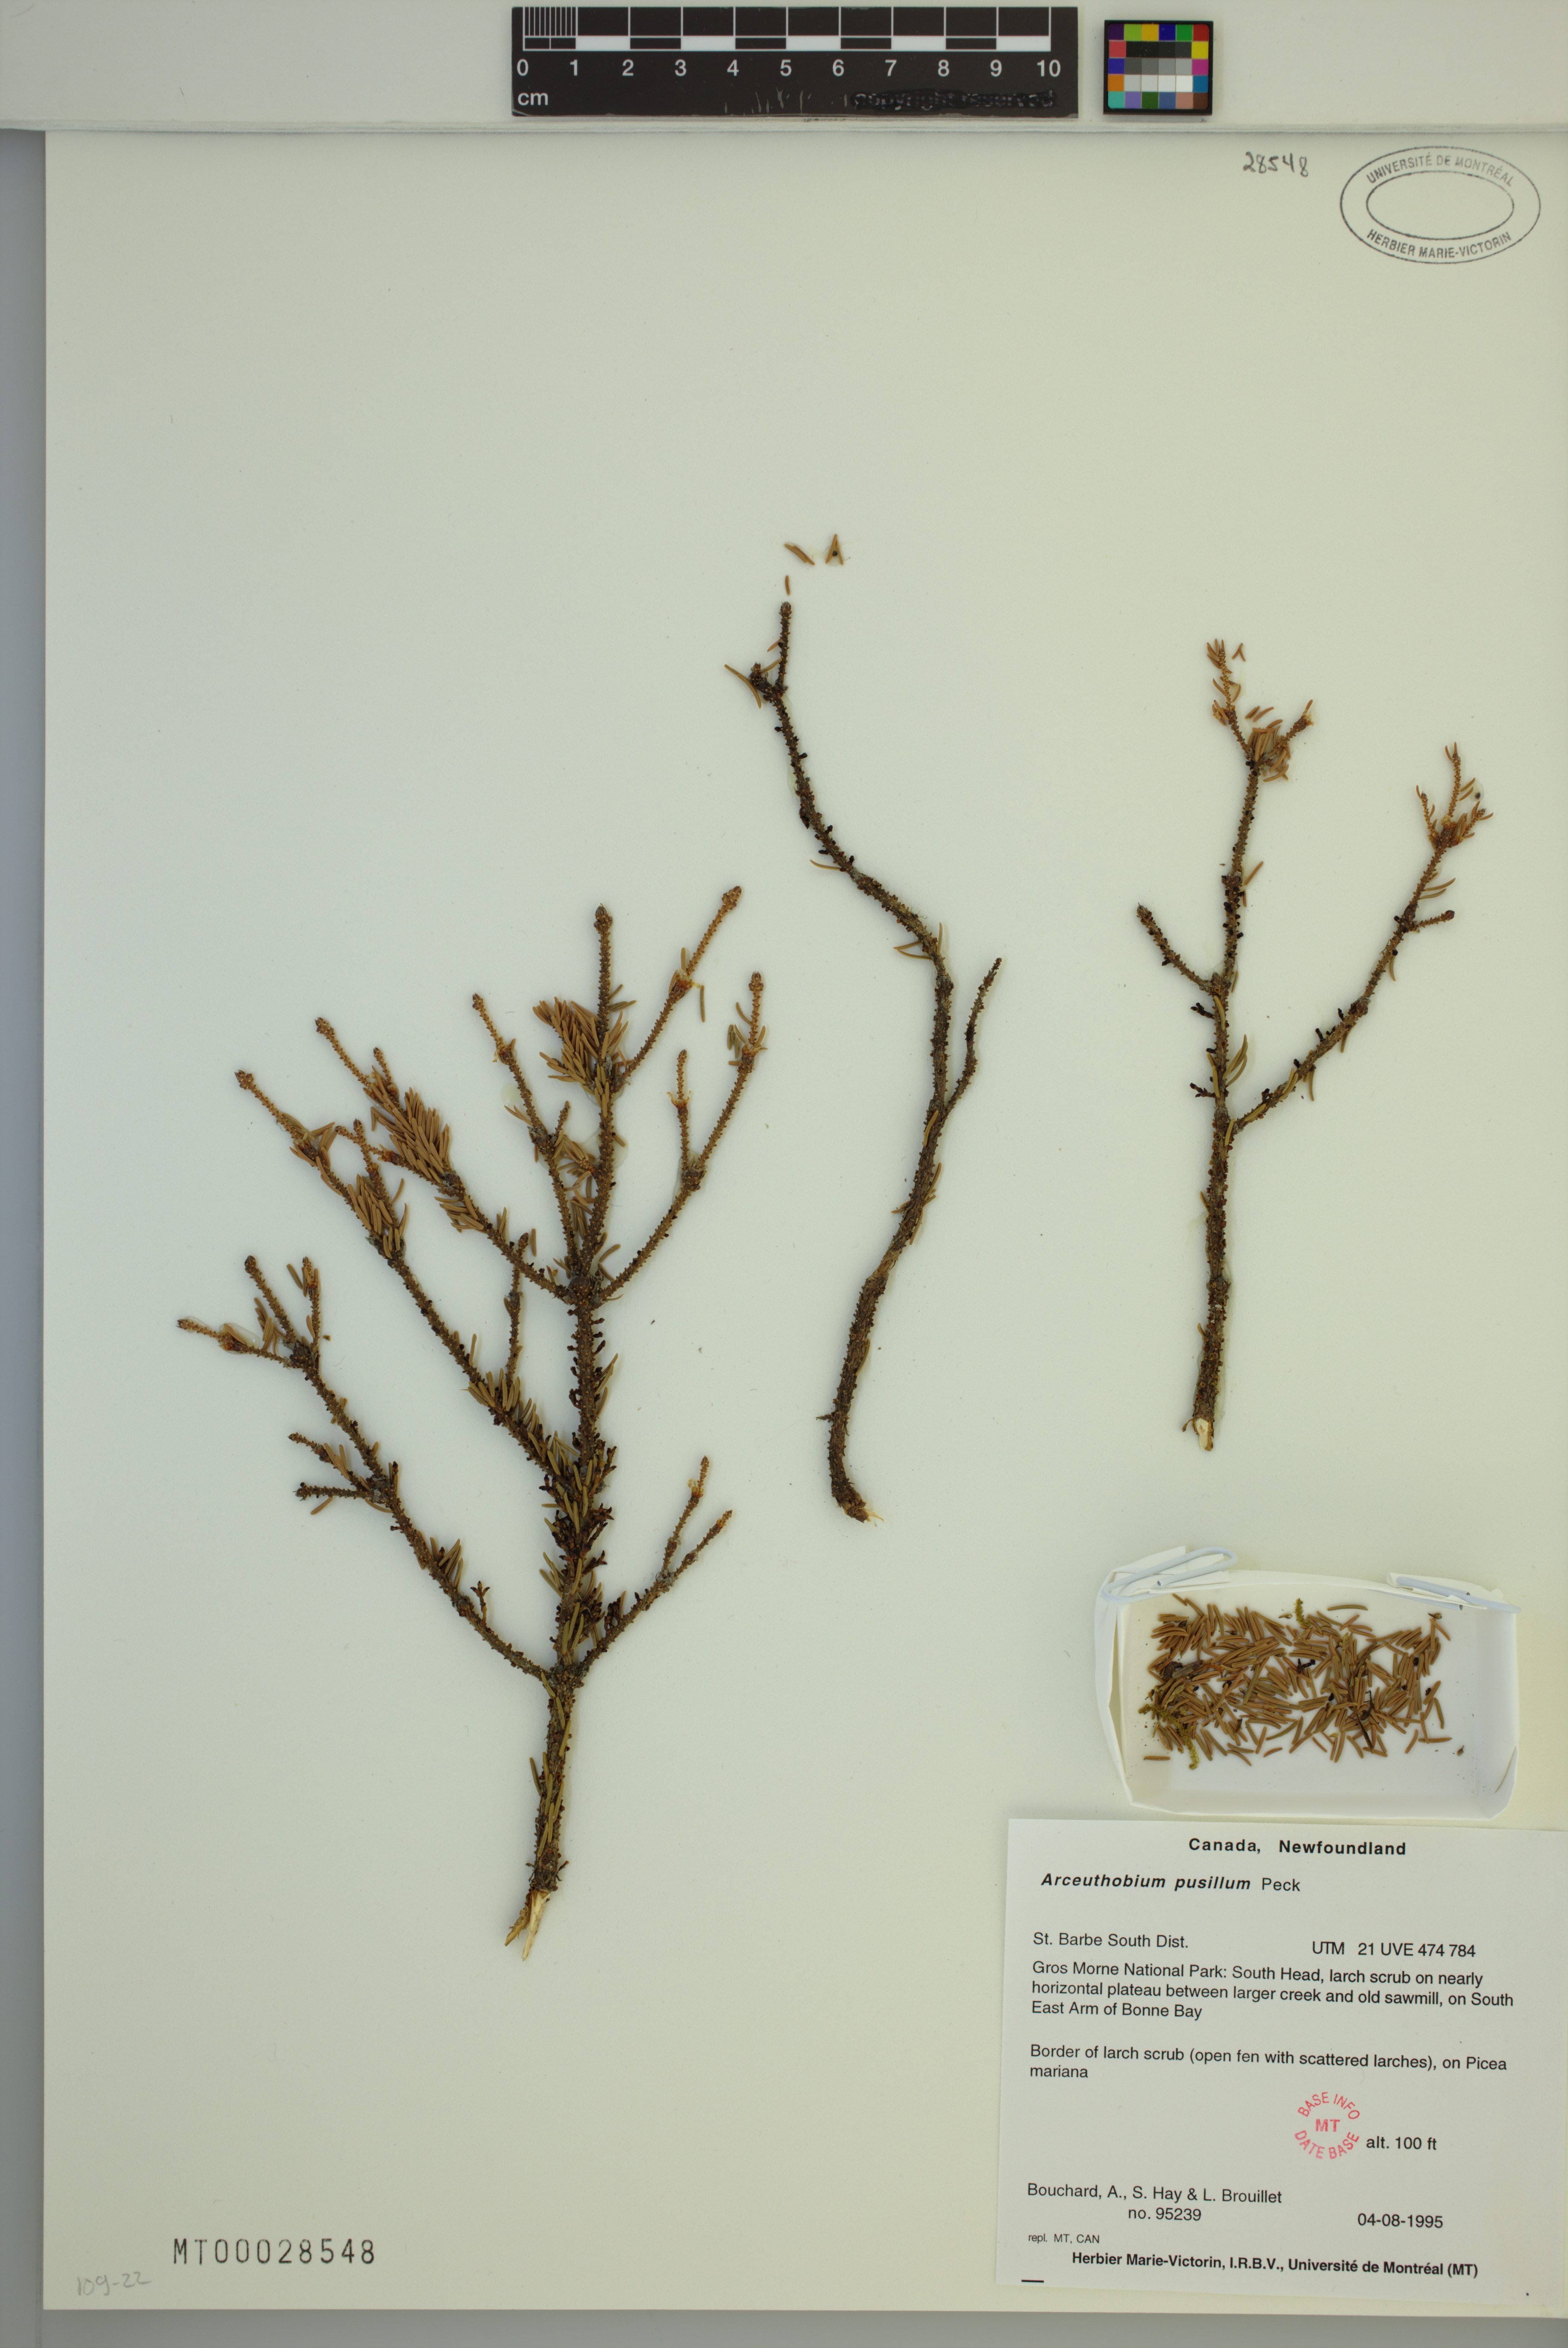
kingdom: Plantae
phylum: Tracheophyta
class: Magnoliopsida
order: Santalales
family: Viscaceae
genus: Arceuthobium
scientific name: Arceuthobium pusillum
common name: Dwarf-mistletoe
